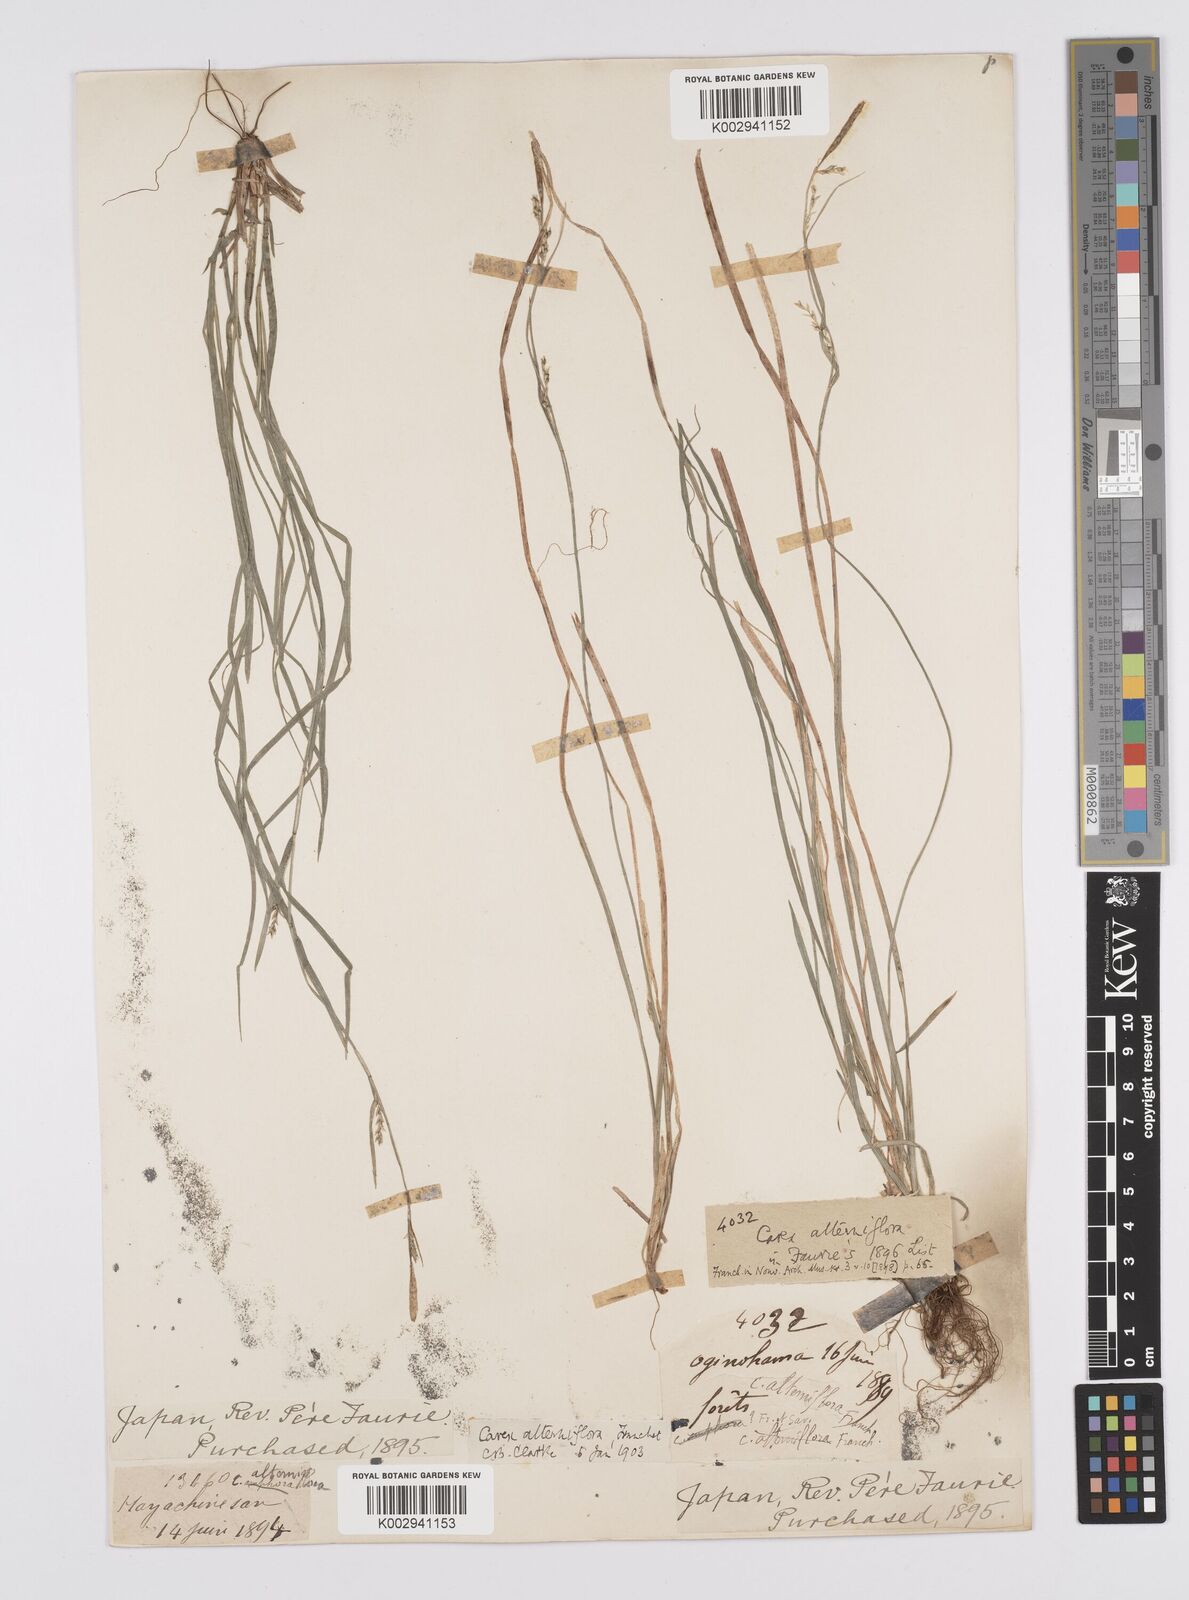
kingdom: Plantae
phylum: Tracheophyta
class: Liliopsida
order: Poales
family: Cyperaceae
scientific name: Cyperaceae
